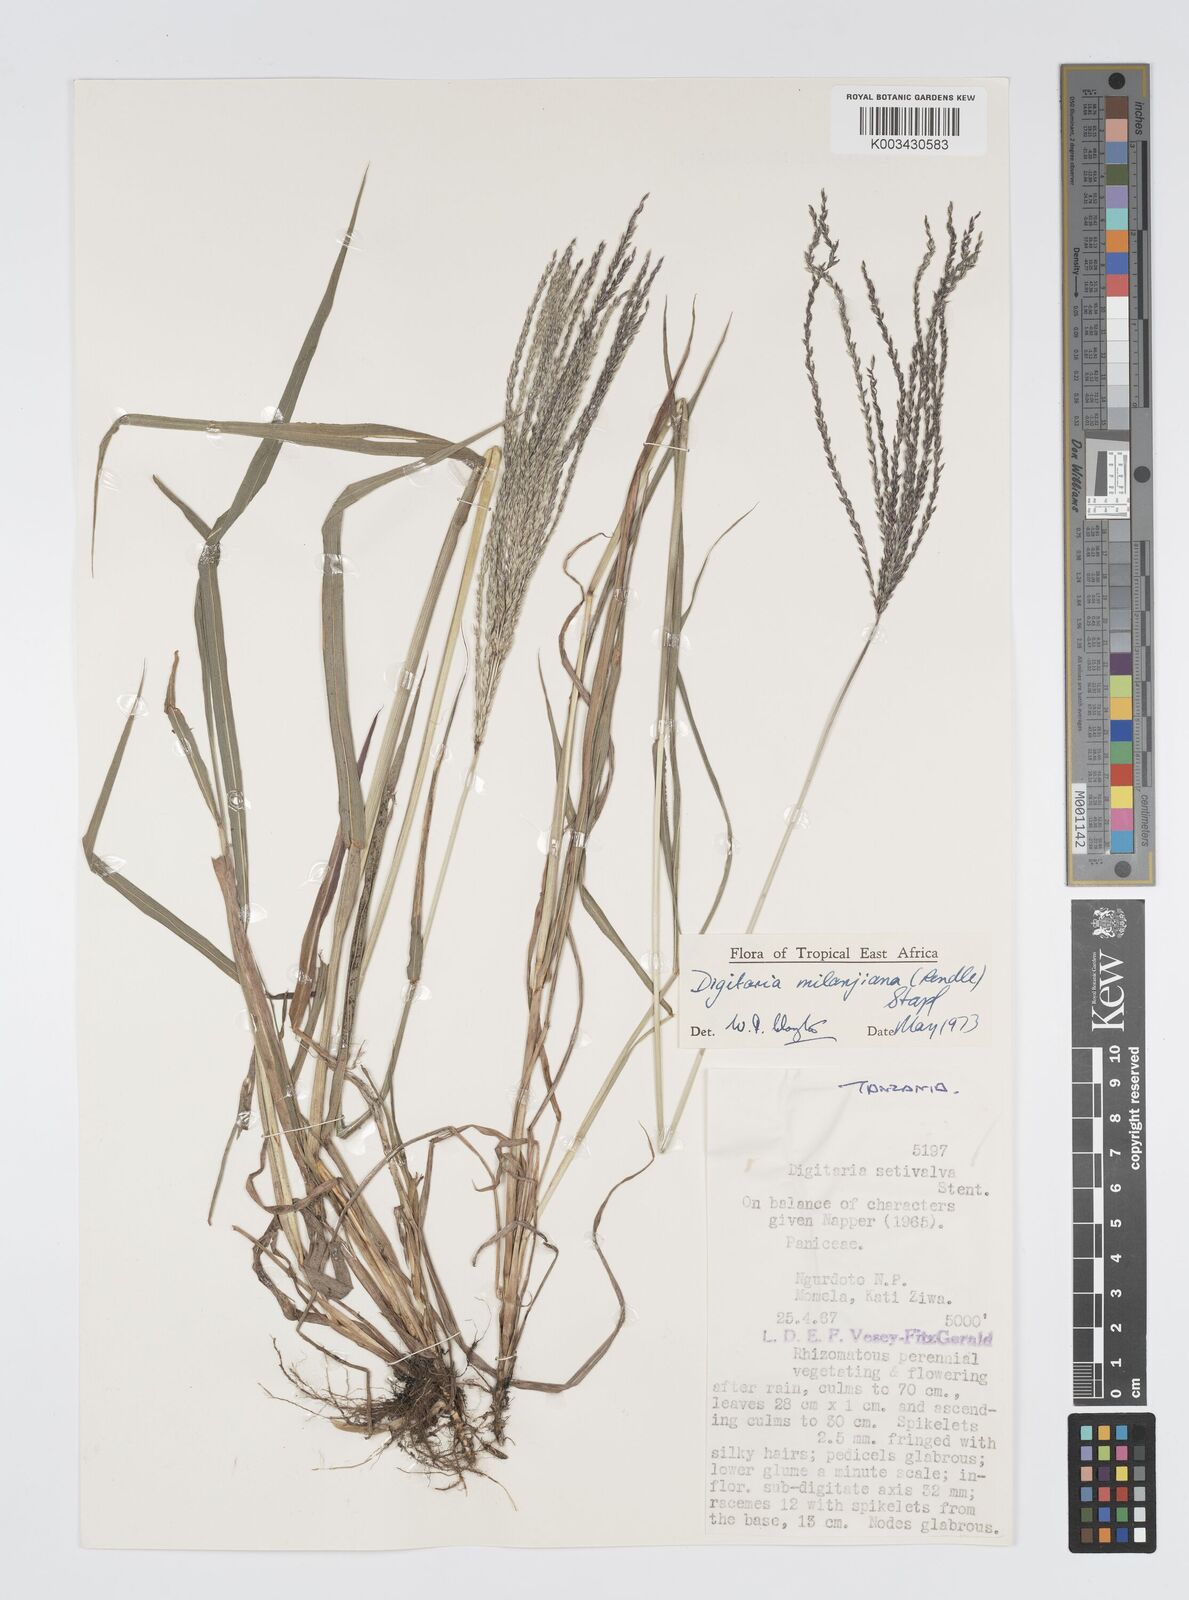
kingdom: Plantae
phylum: Tracheophyta
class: Liliopsida
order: Poales
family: Poaceae
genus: Digitaria
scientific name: Digitaria milanjiana
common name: Madagascar crabgrass
